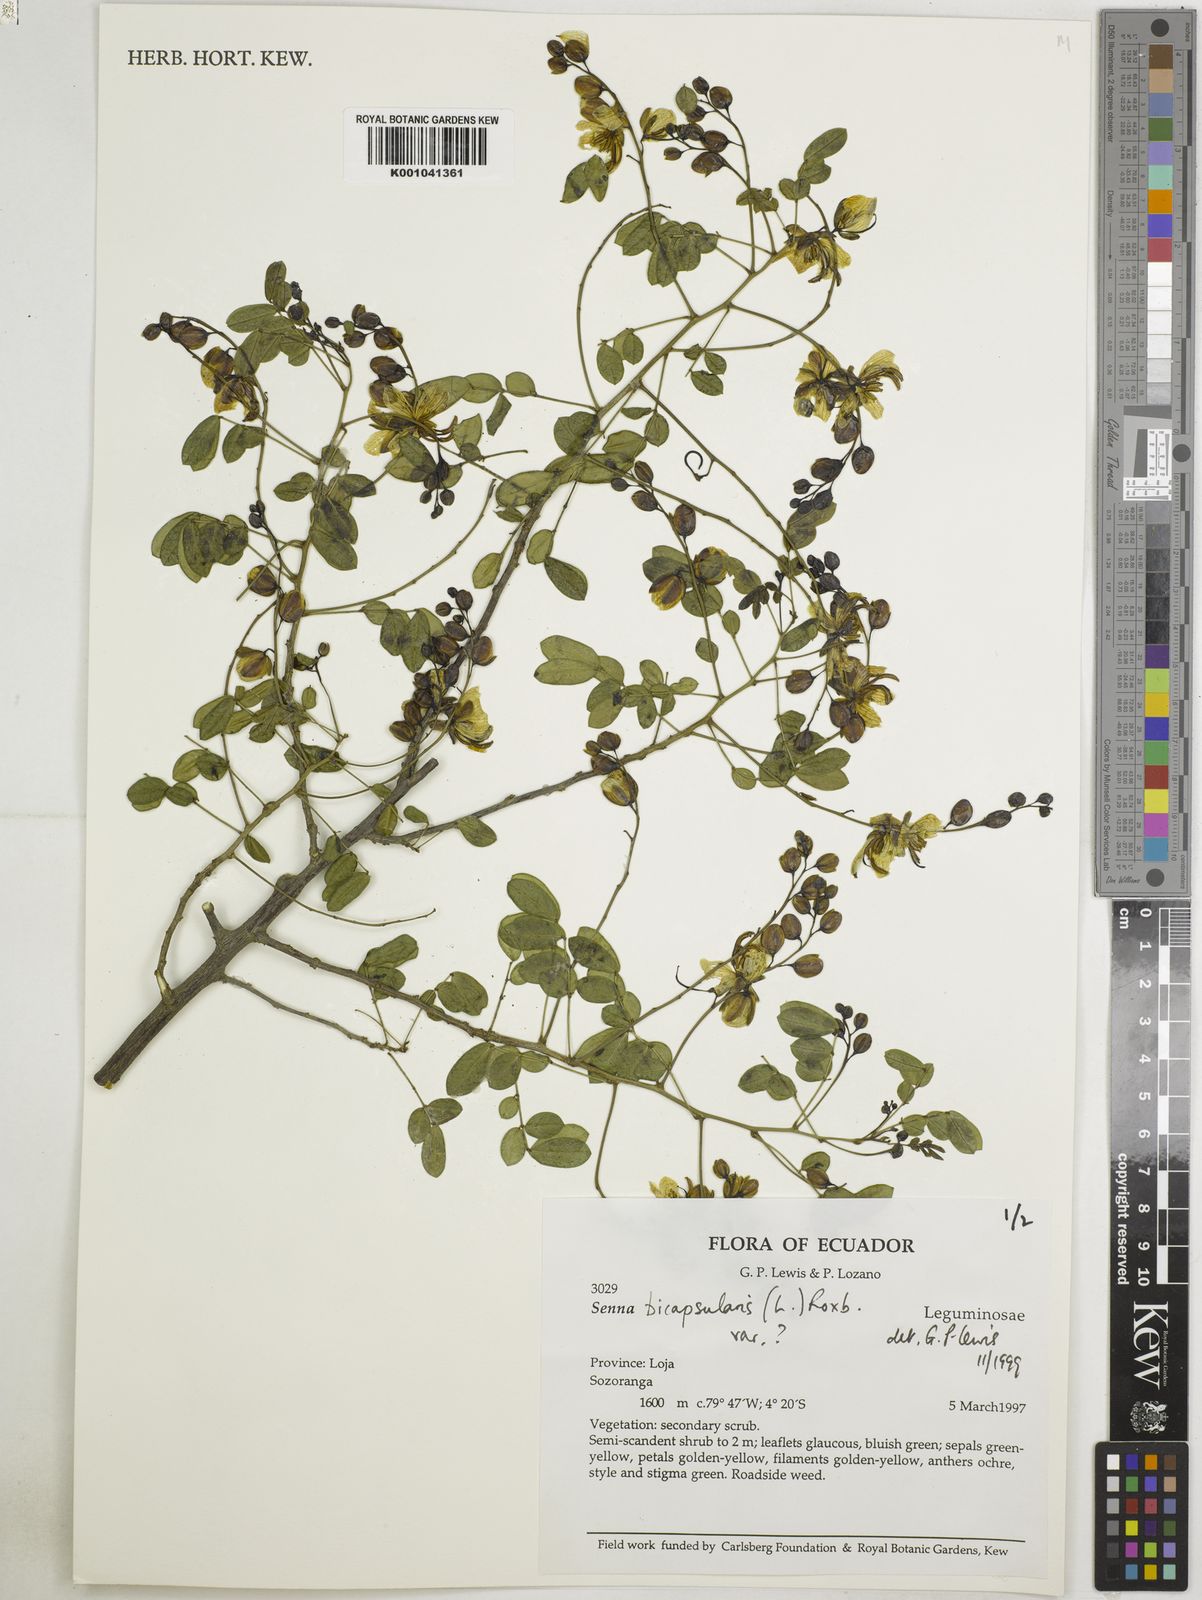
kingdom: Plantae
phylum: Tracheophyta
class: Magnoliopsida
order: Fabales
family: Fabaceae
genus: Senna
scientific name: Senna bicapsularis
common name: Christmasbush
